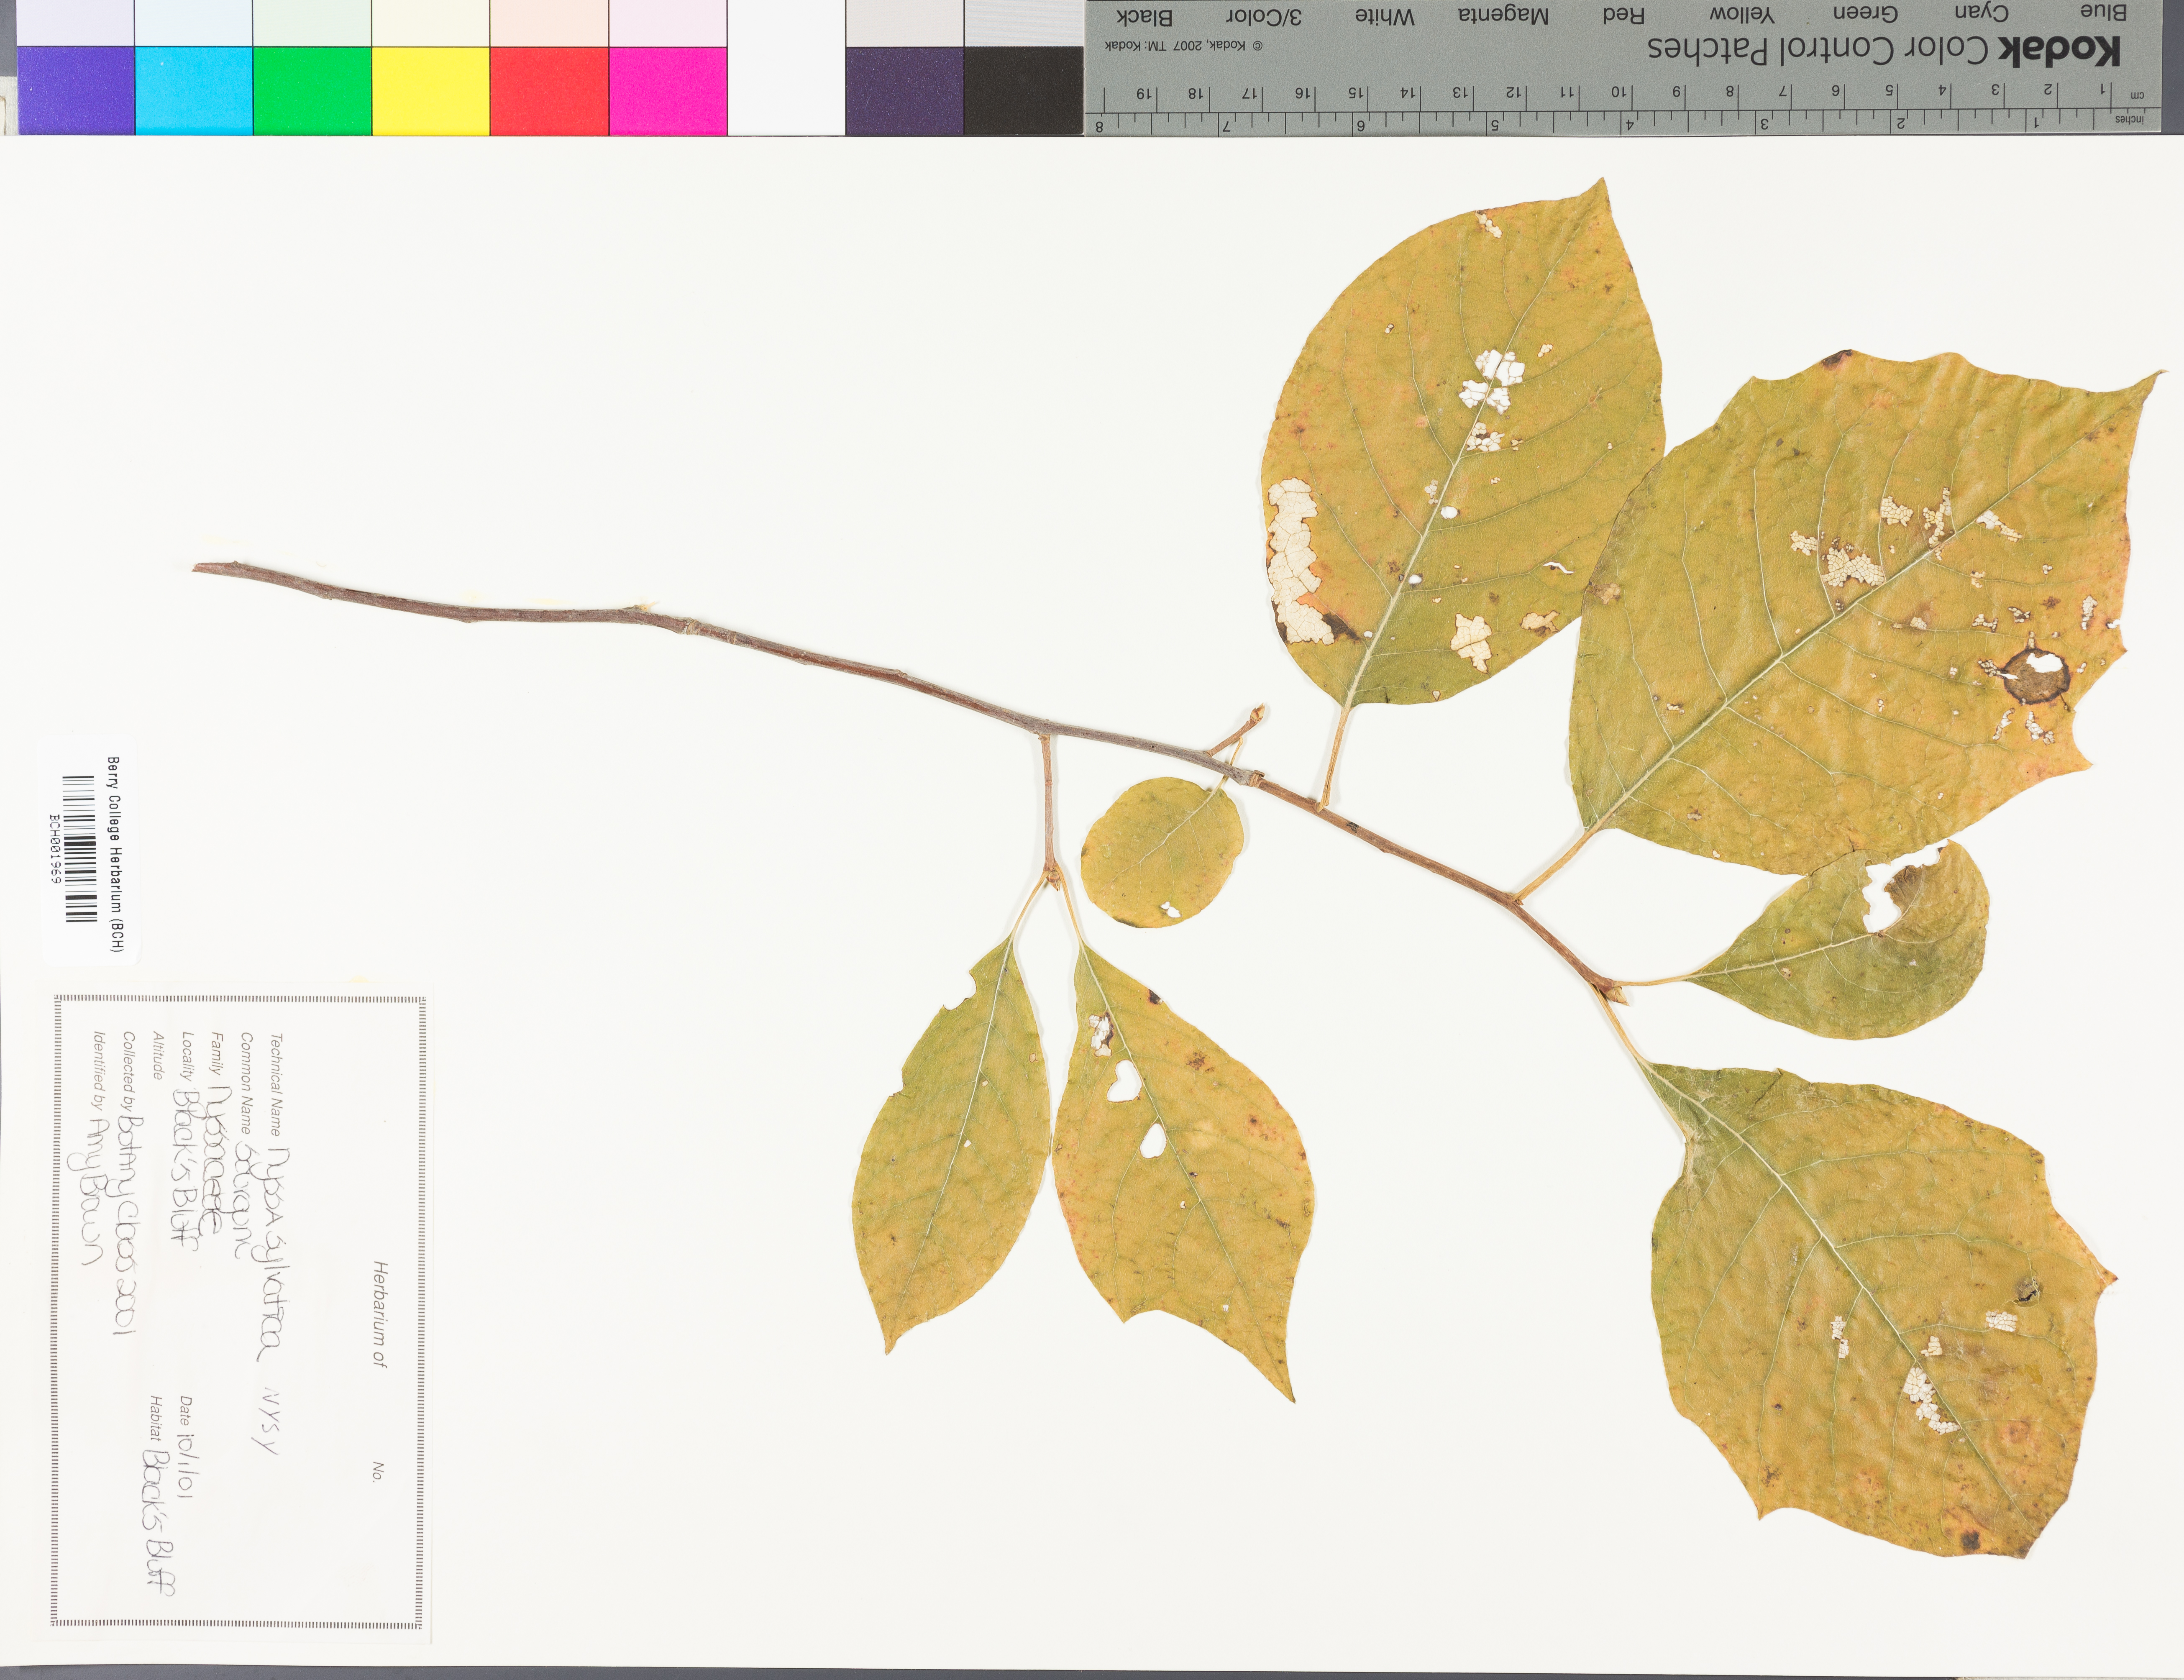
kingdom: Plantae
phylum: Tracheophyta
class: Magnoliopsida
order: Cornales
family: Nyssaceae
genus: Nyssa
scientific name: Nyssa sylvatica
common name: Black tupelo
